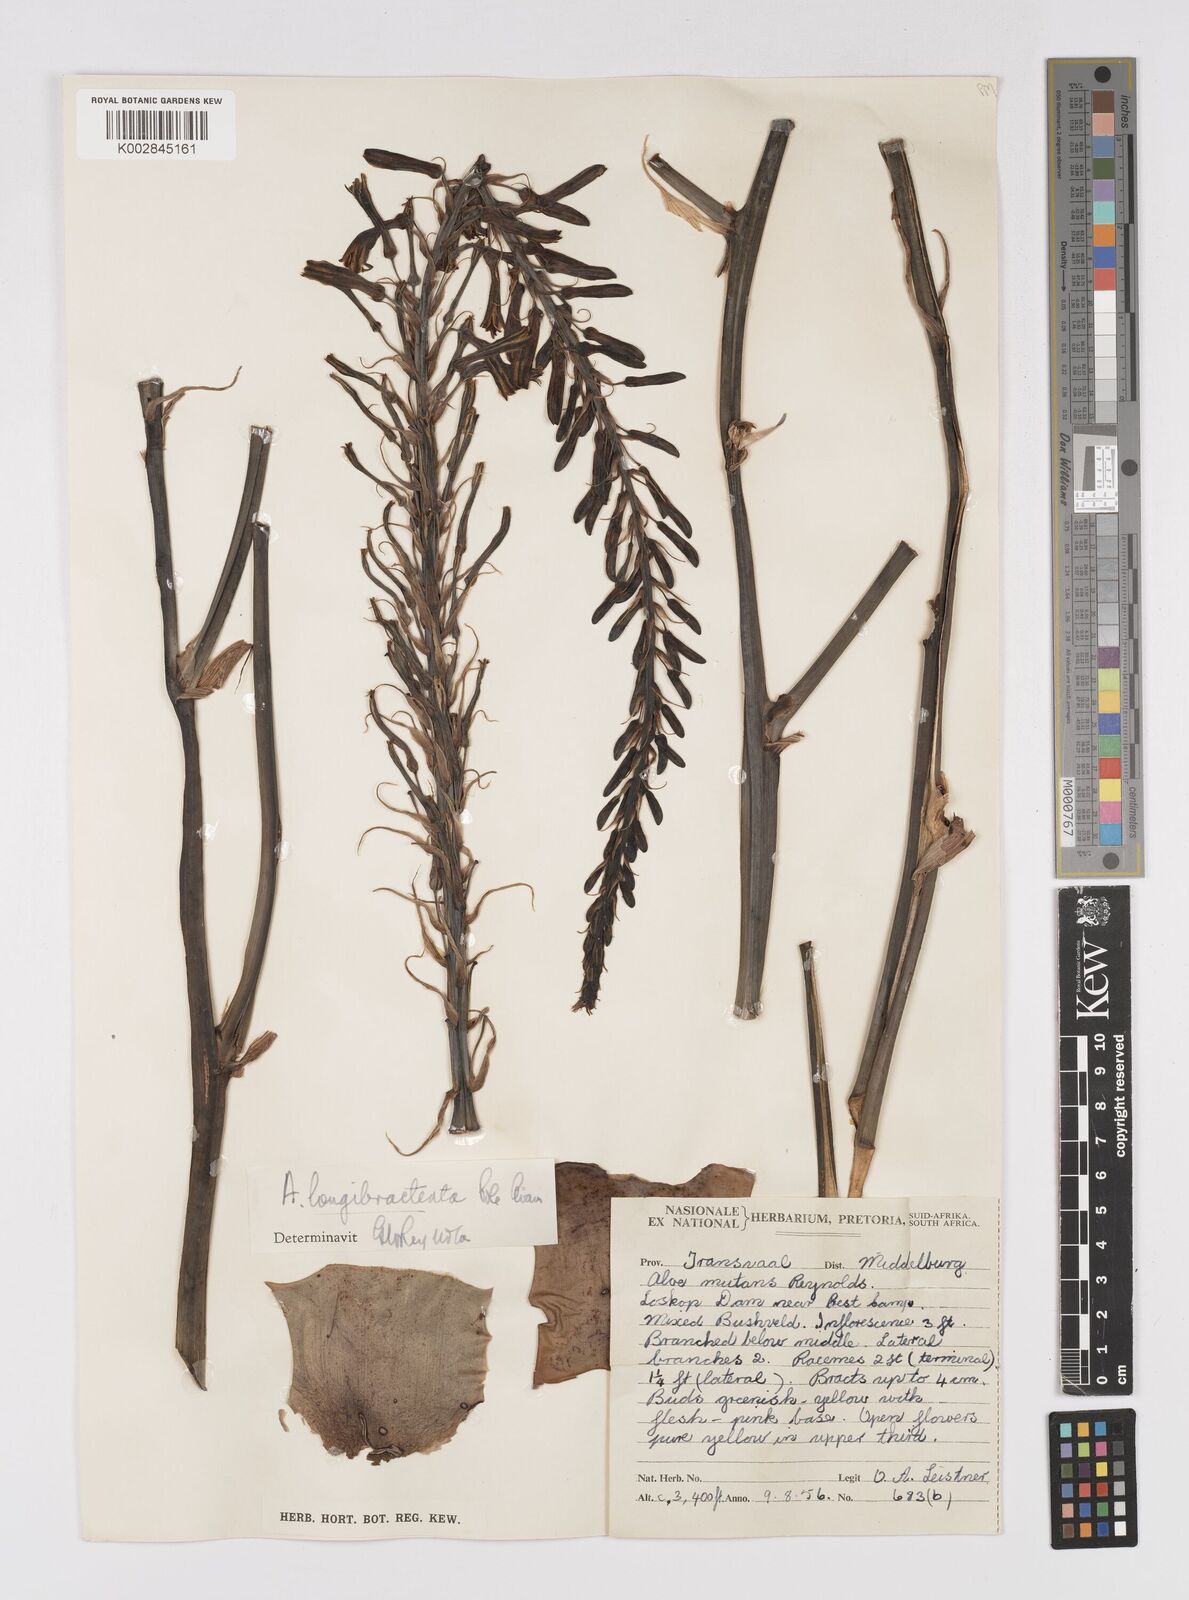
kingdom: Plantae
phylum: Tracheophyta
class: Liliopsida
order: Asparagales
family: Asphodelaceae
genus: Aloe
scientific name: Aloe longibracteata
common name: Limpopo spotted aloe
